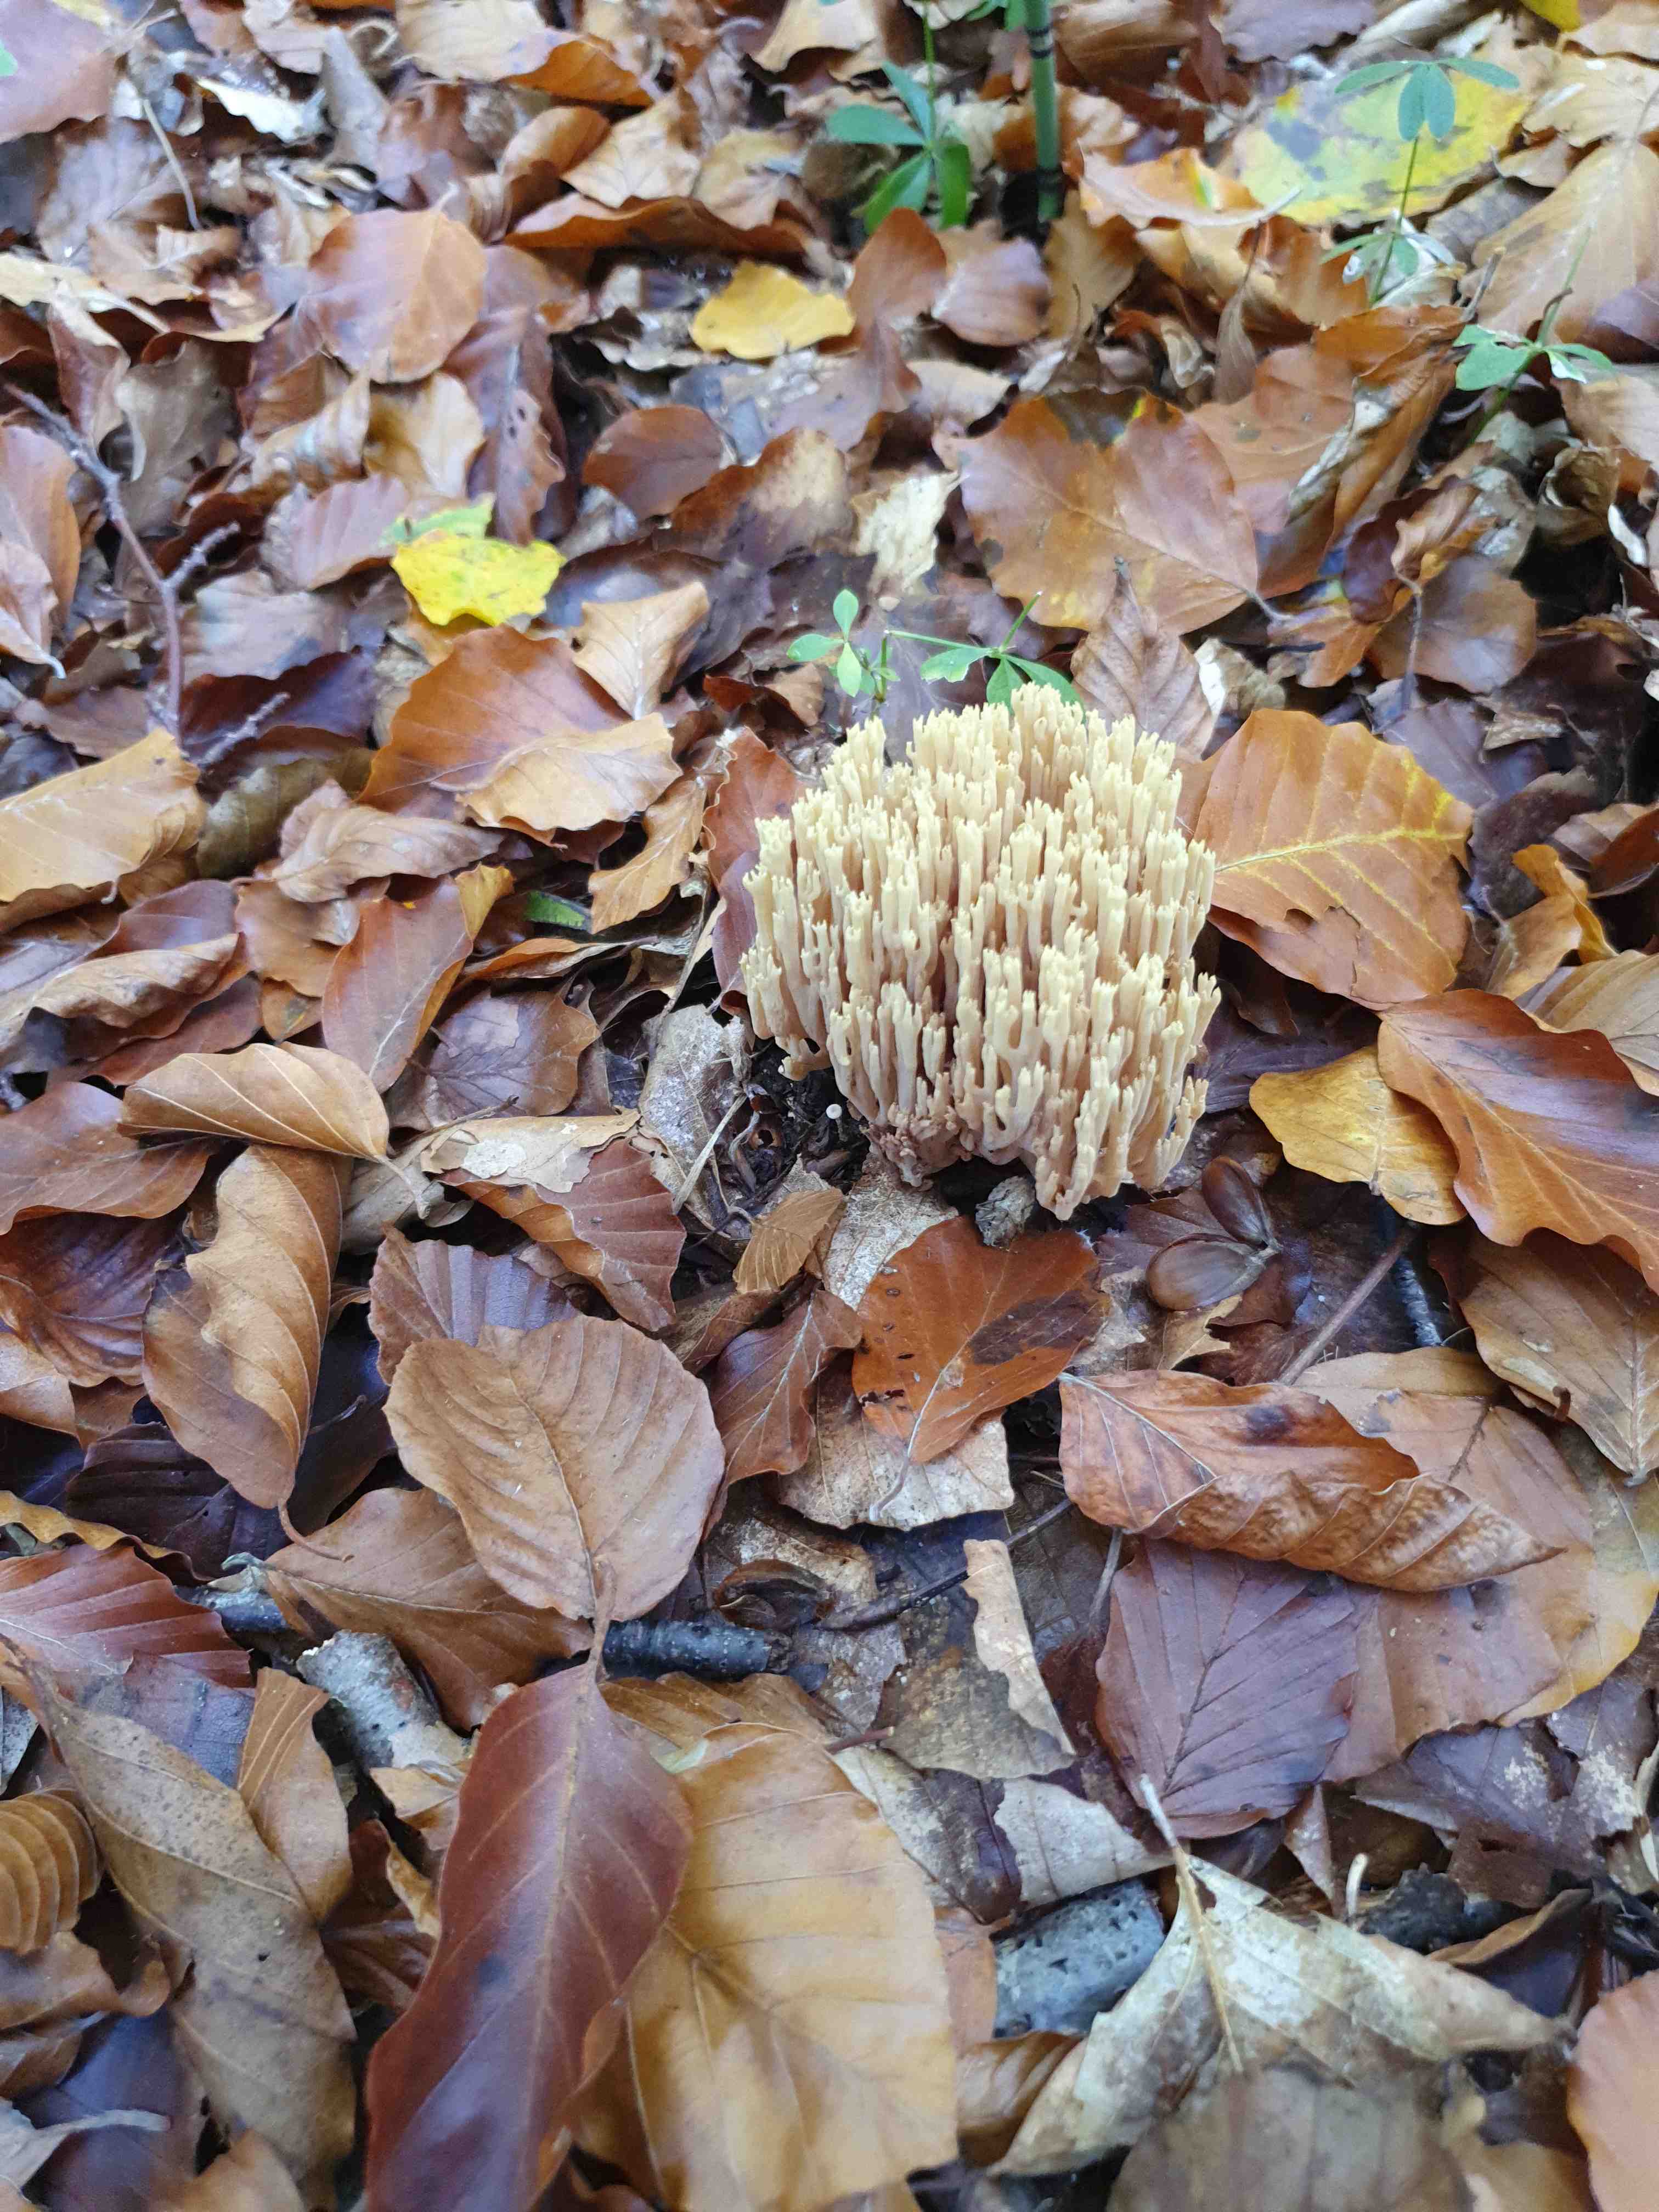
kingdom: Fungi
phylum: Basidiomycota
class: Agaricomycetes
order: Gomphales
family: Gomphaceae
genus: Ramaria
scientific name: Ramaria stricta
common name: rank koralsvamp
